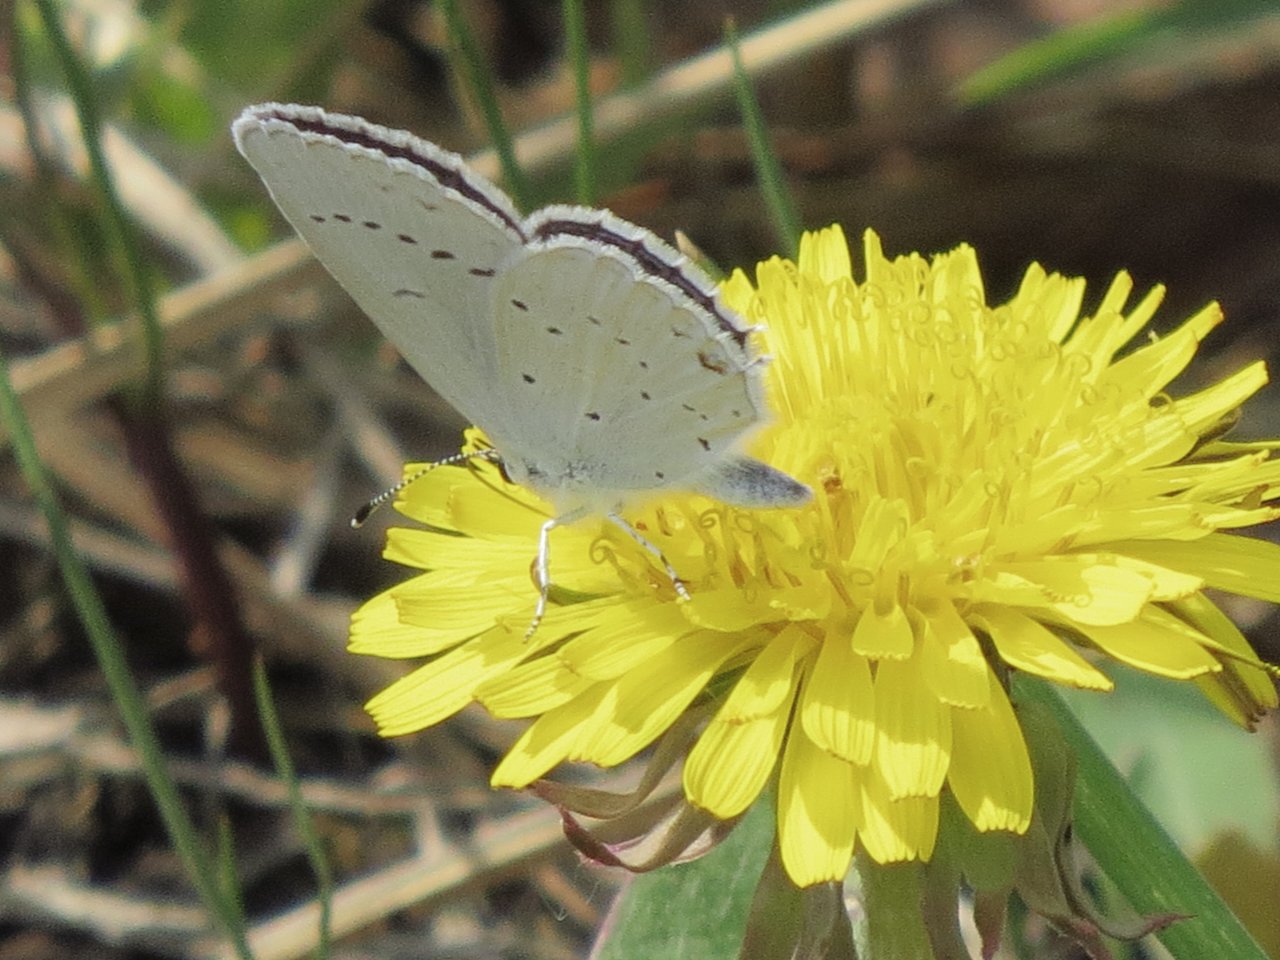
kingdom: Animalia
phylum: Arthropoda
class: Insecta
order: Lepidoptera
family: Lycaenidae
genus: Elkalyce
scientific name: Elkalyce amyntula
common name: Western Tailed-Blue
